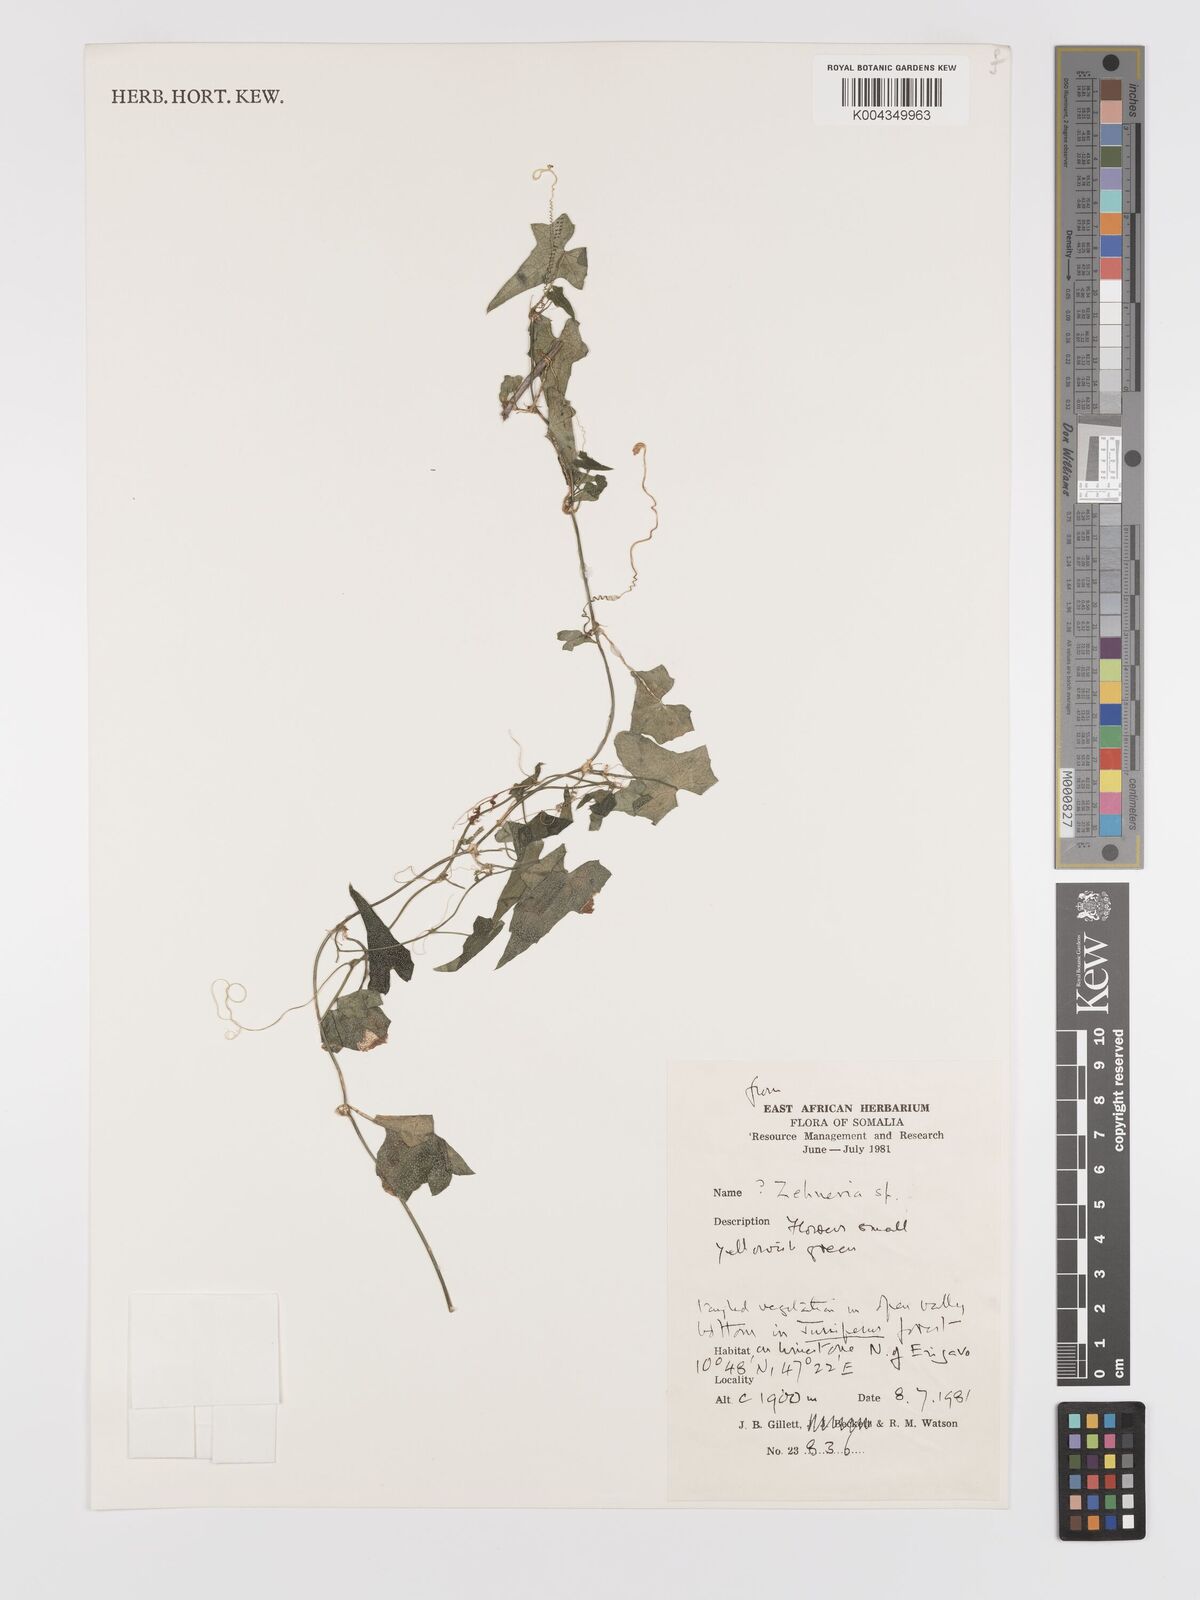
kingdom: Plantae
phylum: Tracheophyta
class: Magnoliopsida
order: Cucurbitales
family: Cucurbitaceae
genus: Zehneria
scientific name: Zehneria minutiflora
